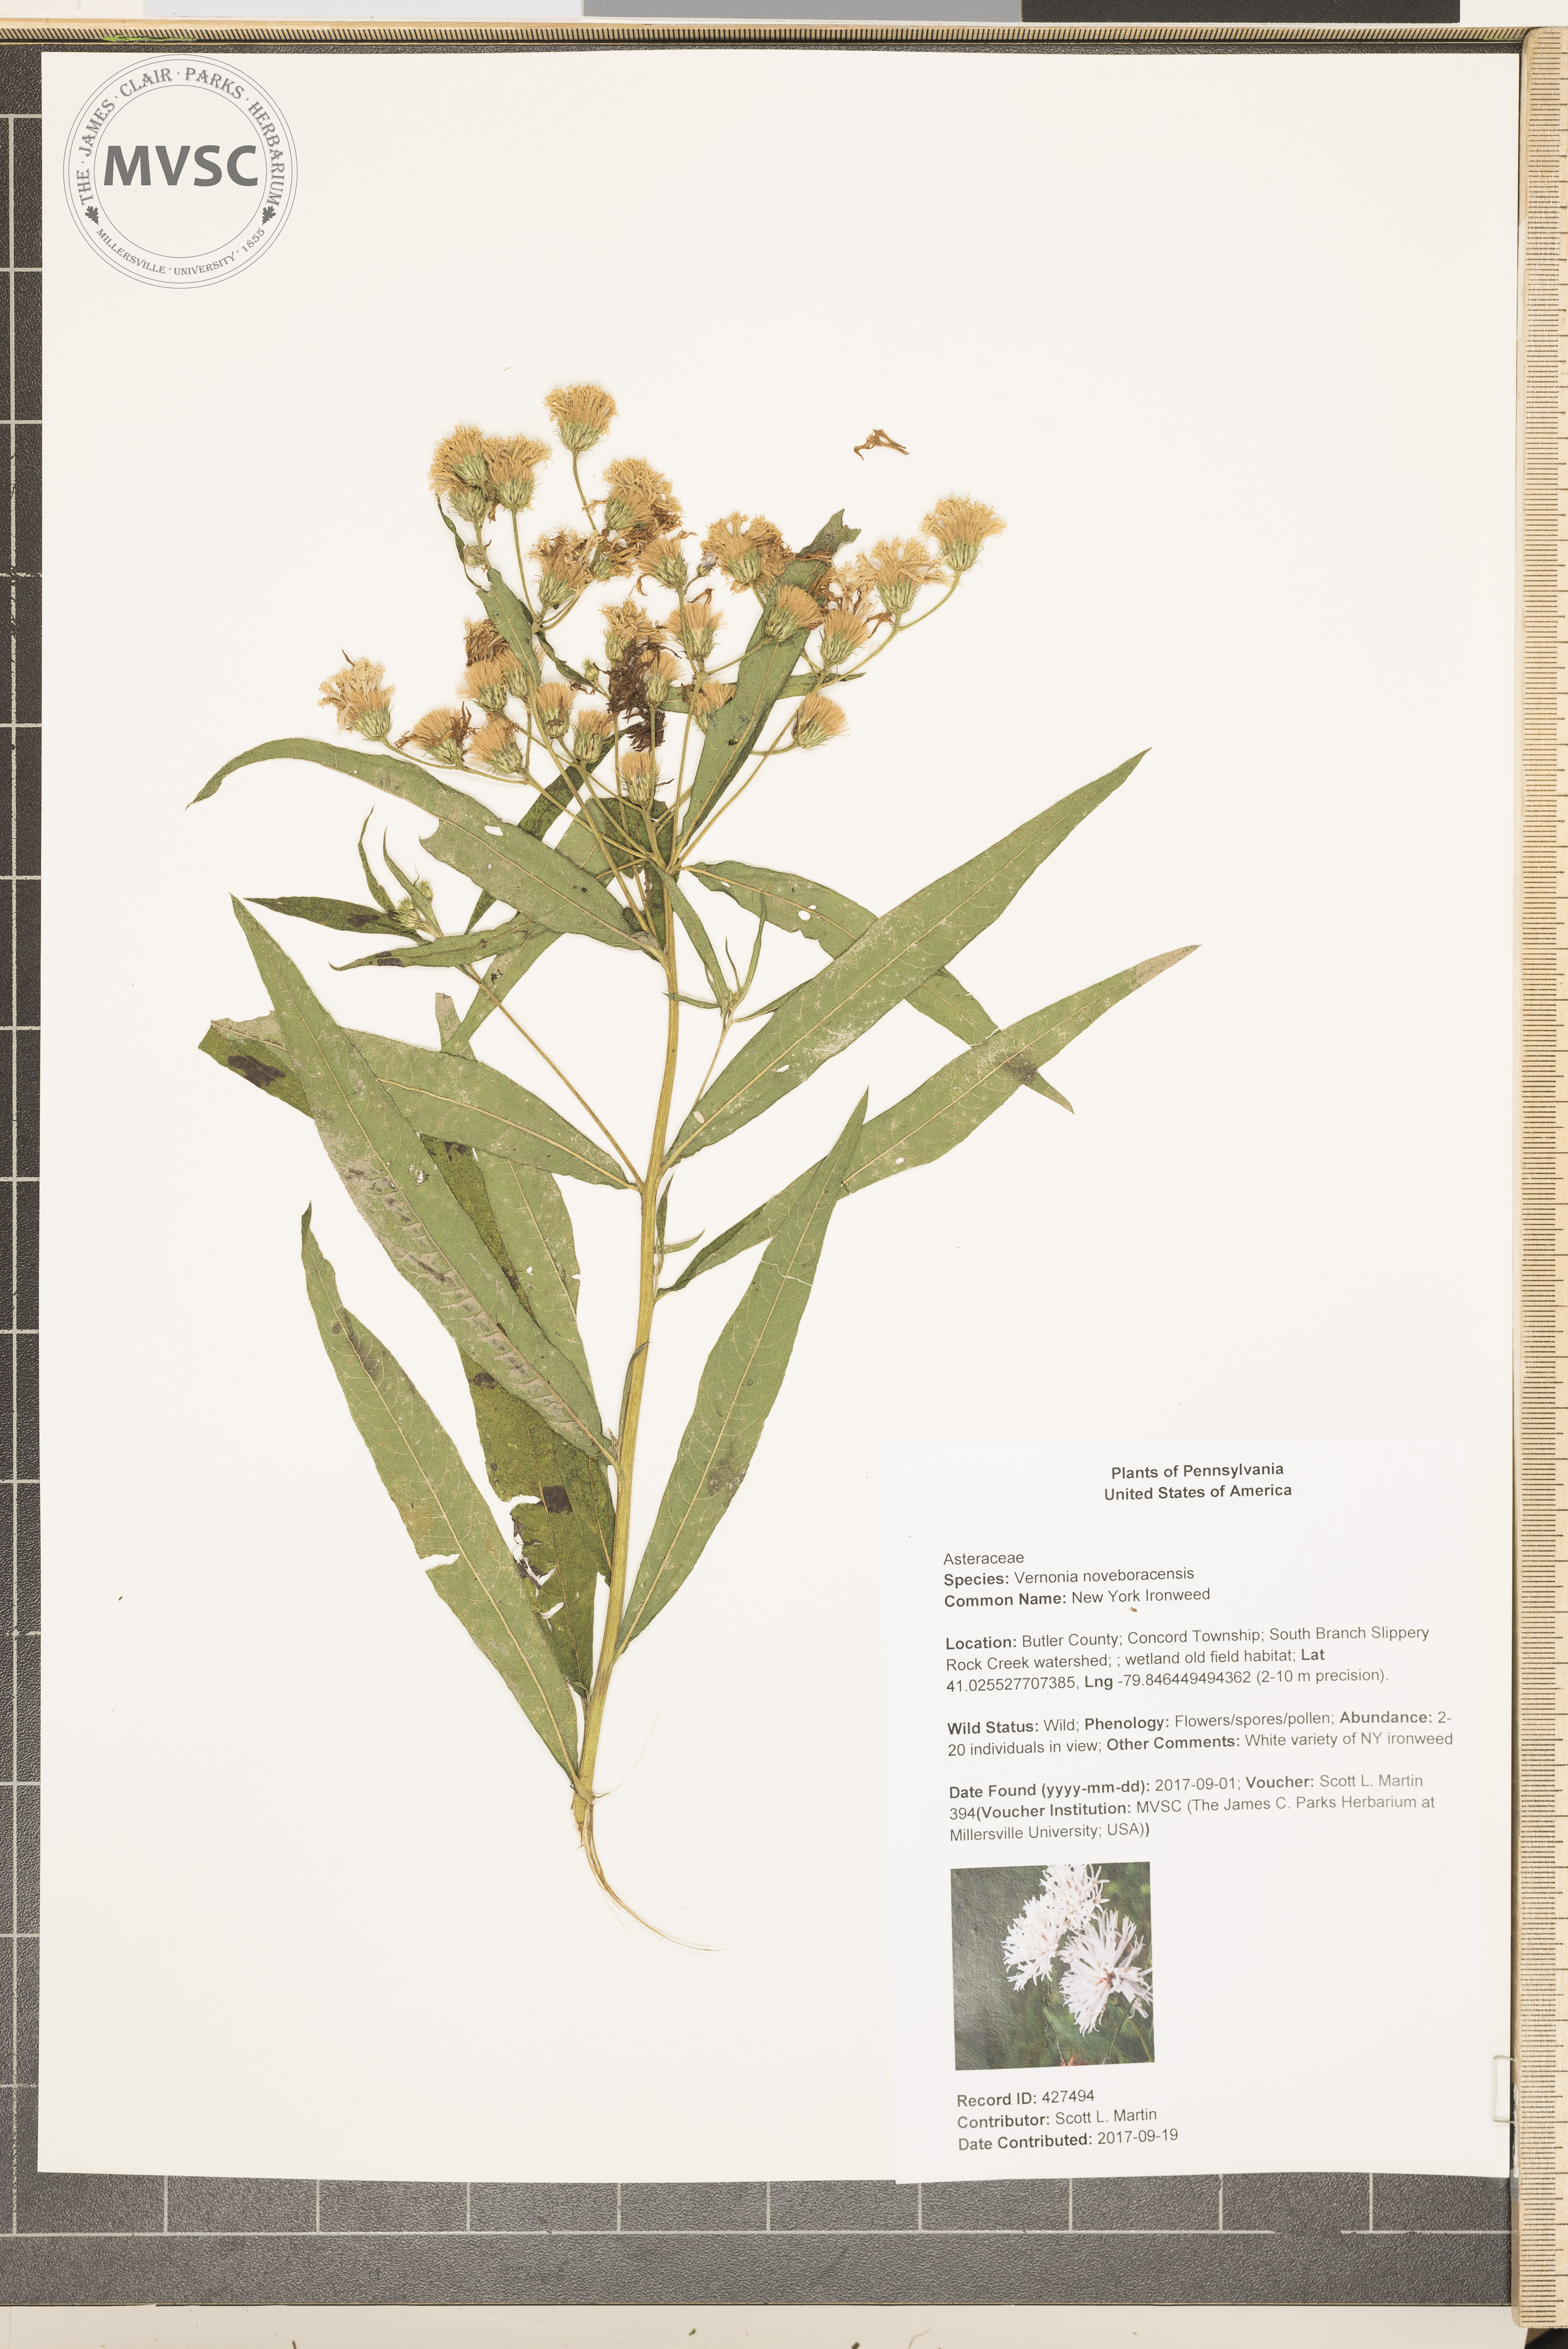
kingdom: Plantae
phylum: Tracheophyta
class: Magnoliopsida
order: Asterales
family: Asteraceae
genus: Vernonia
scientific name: Vernonia noveboracensis
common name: New York Ironweed
